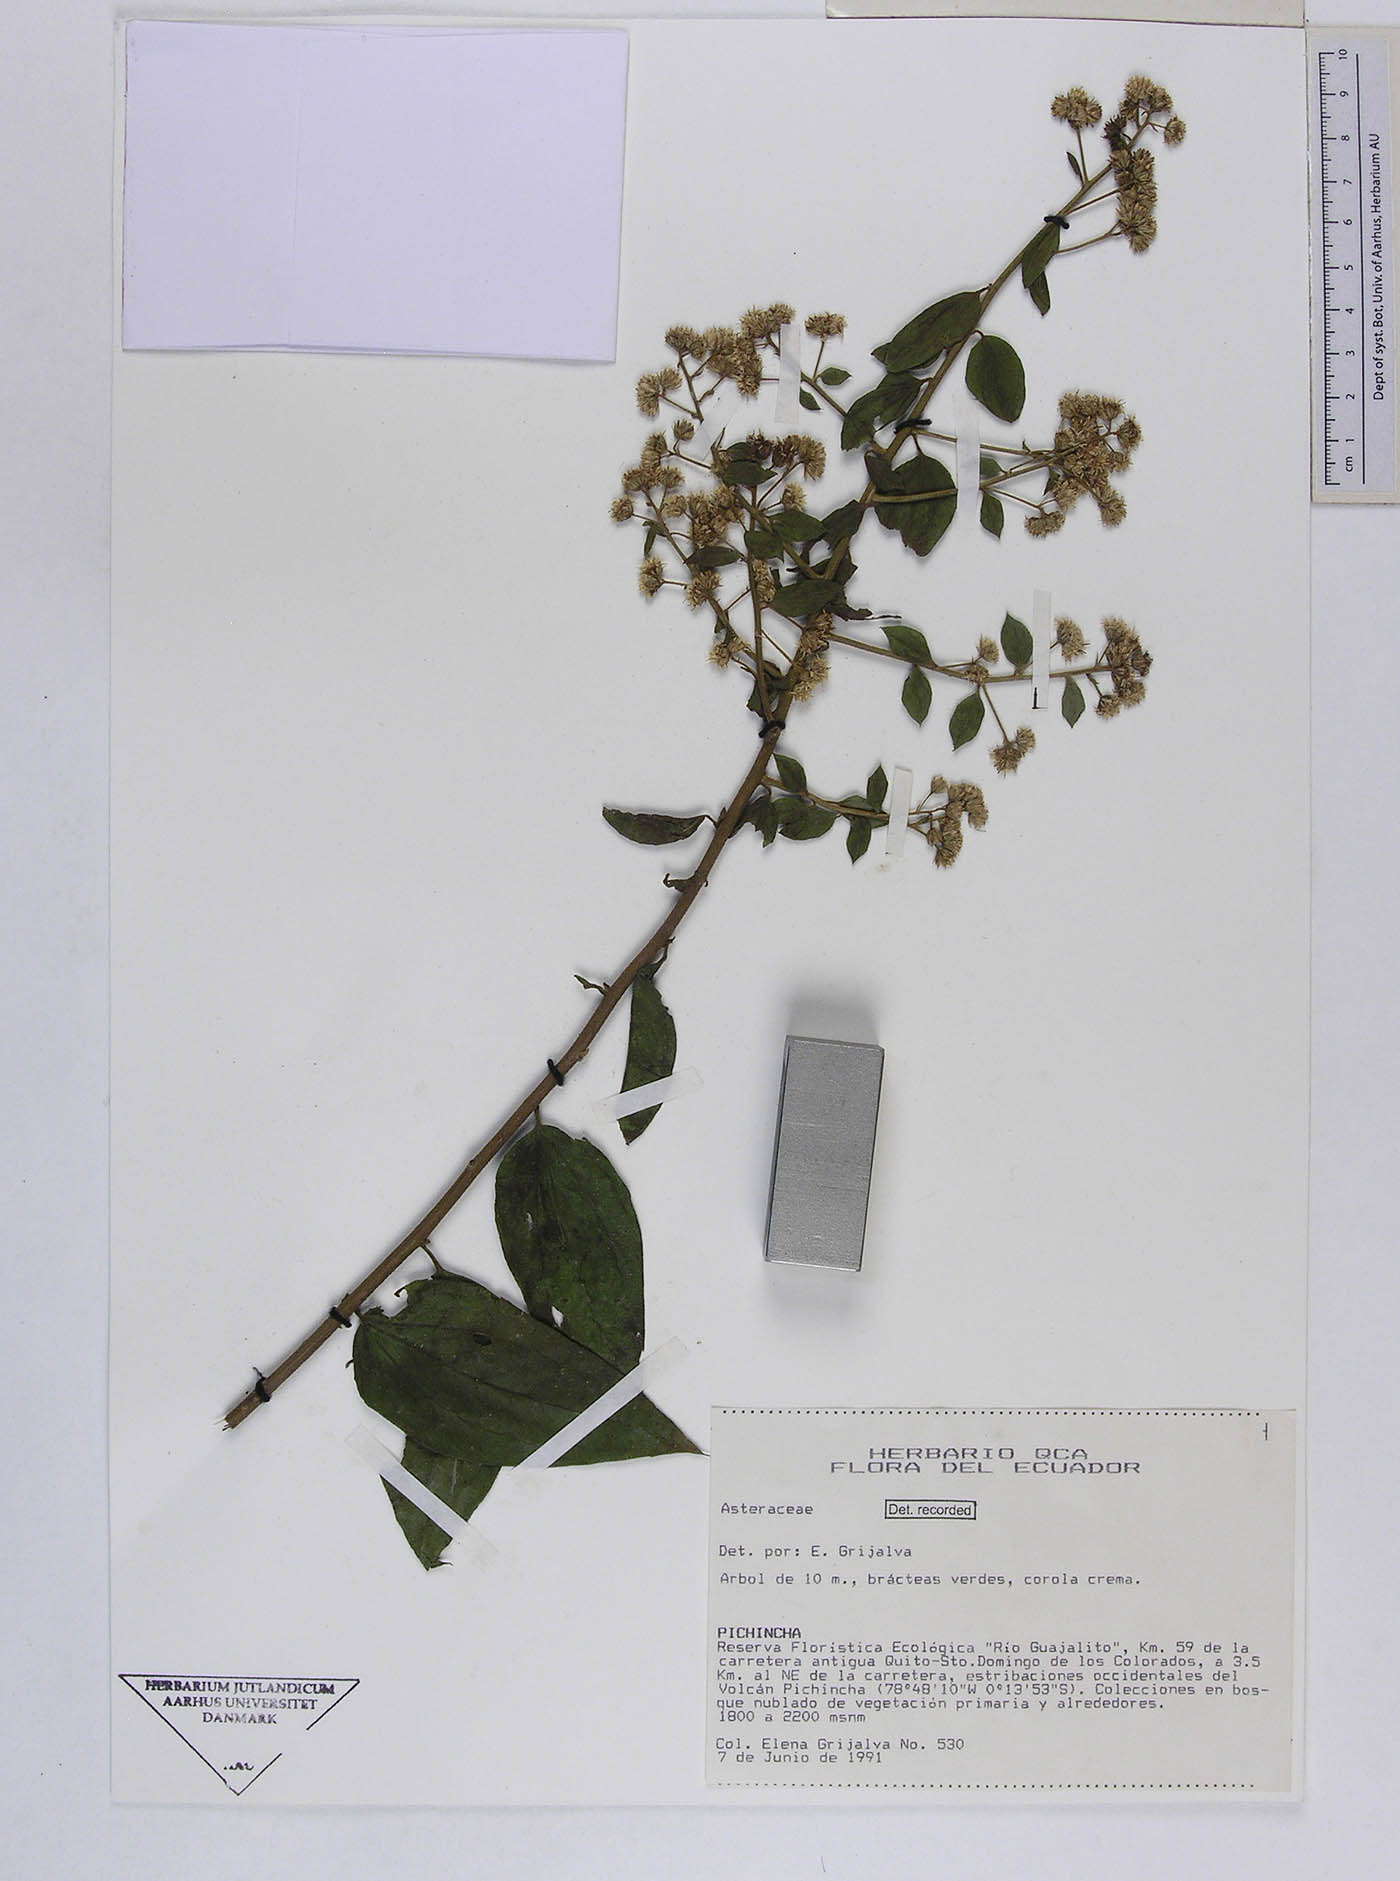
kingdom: Plantae
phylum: Tracheophyta
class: Magnoliopsida
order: Asterales
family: Asteraceae
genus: Baccharis
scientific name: Baccharis trinervis
